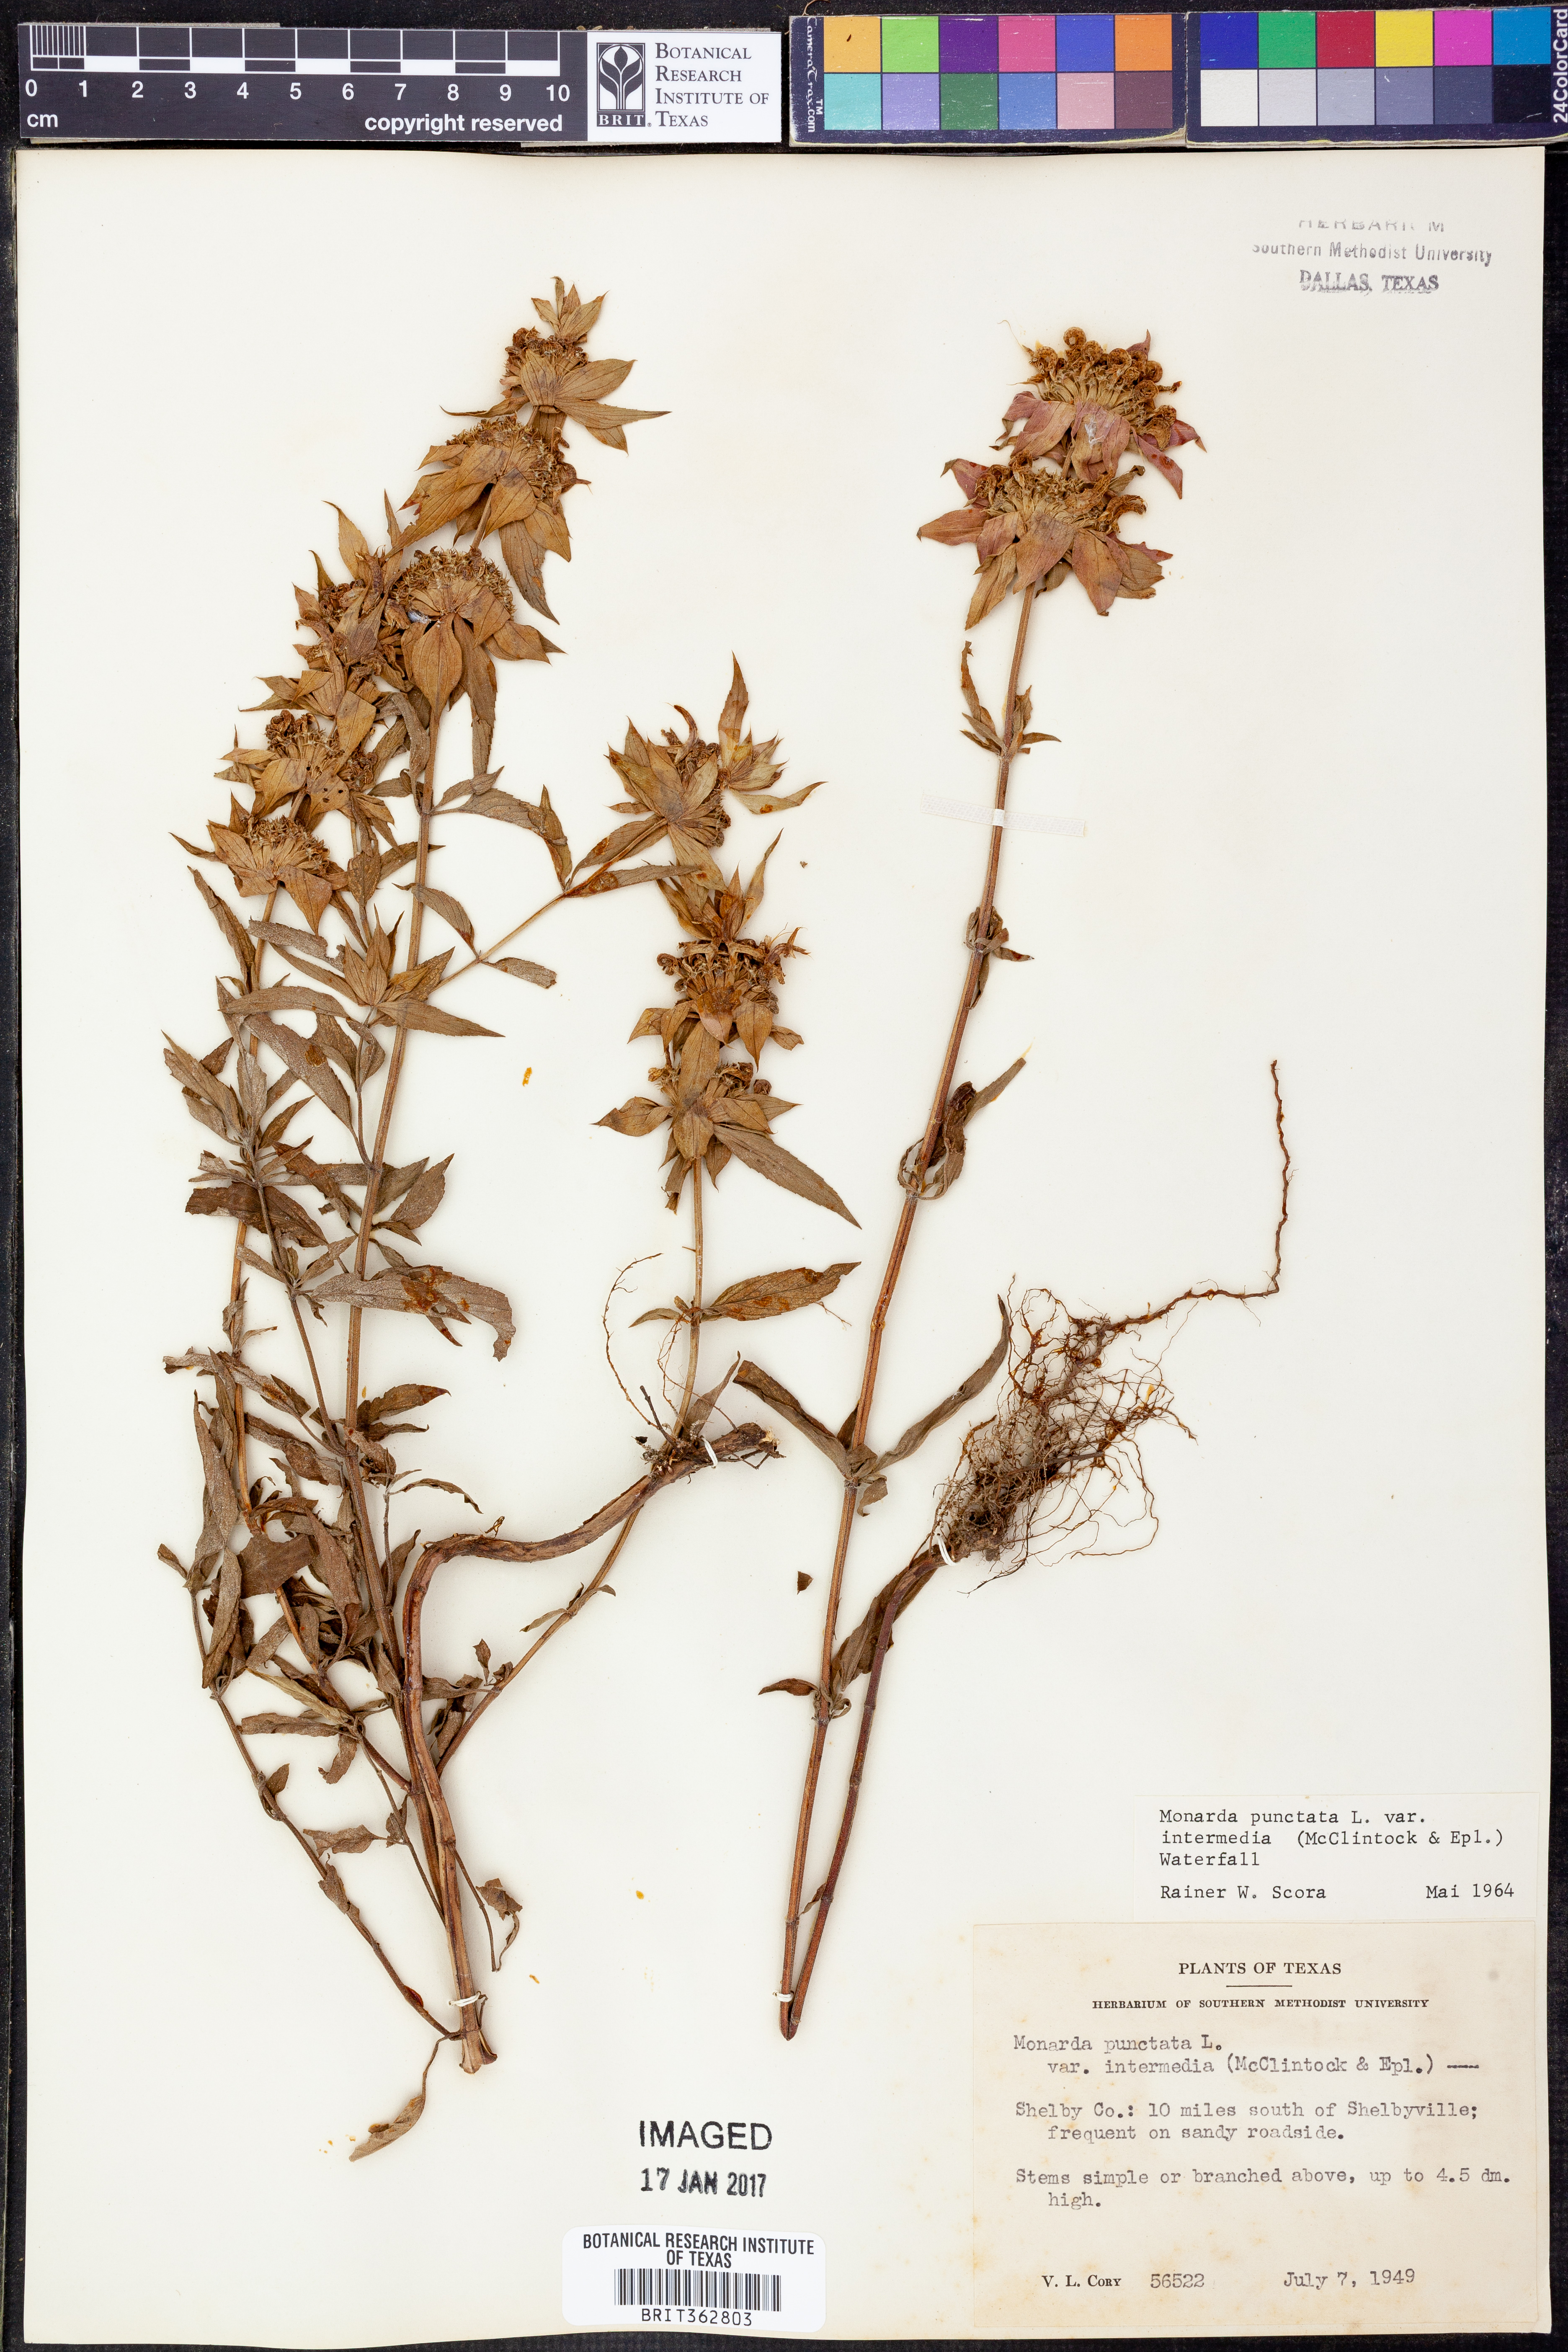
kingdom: Plantae
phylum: Tracheophyta
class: Magnoliopsida
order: Lamiales
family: Lamiaceae
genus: Monarda
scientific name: Monarda punctata
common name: Dotted monarda
